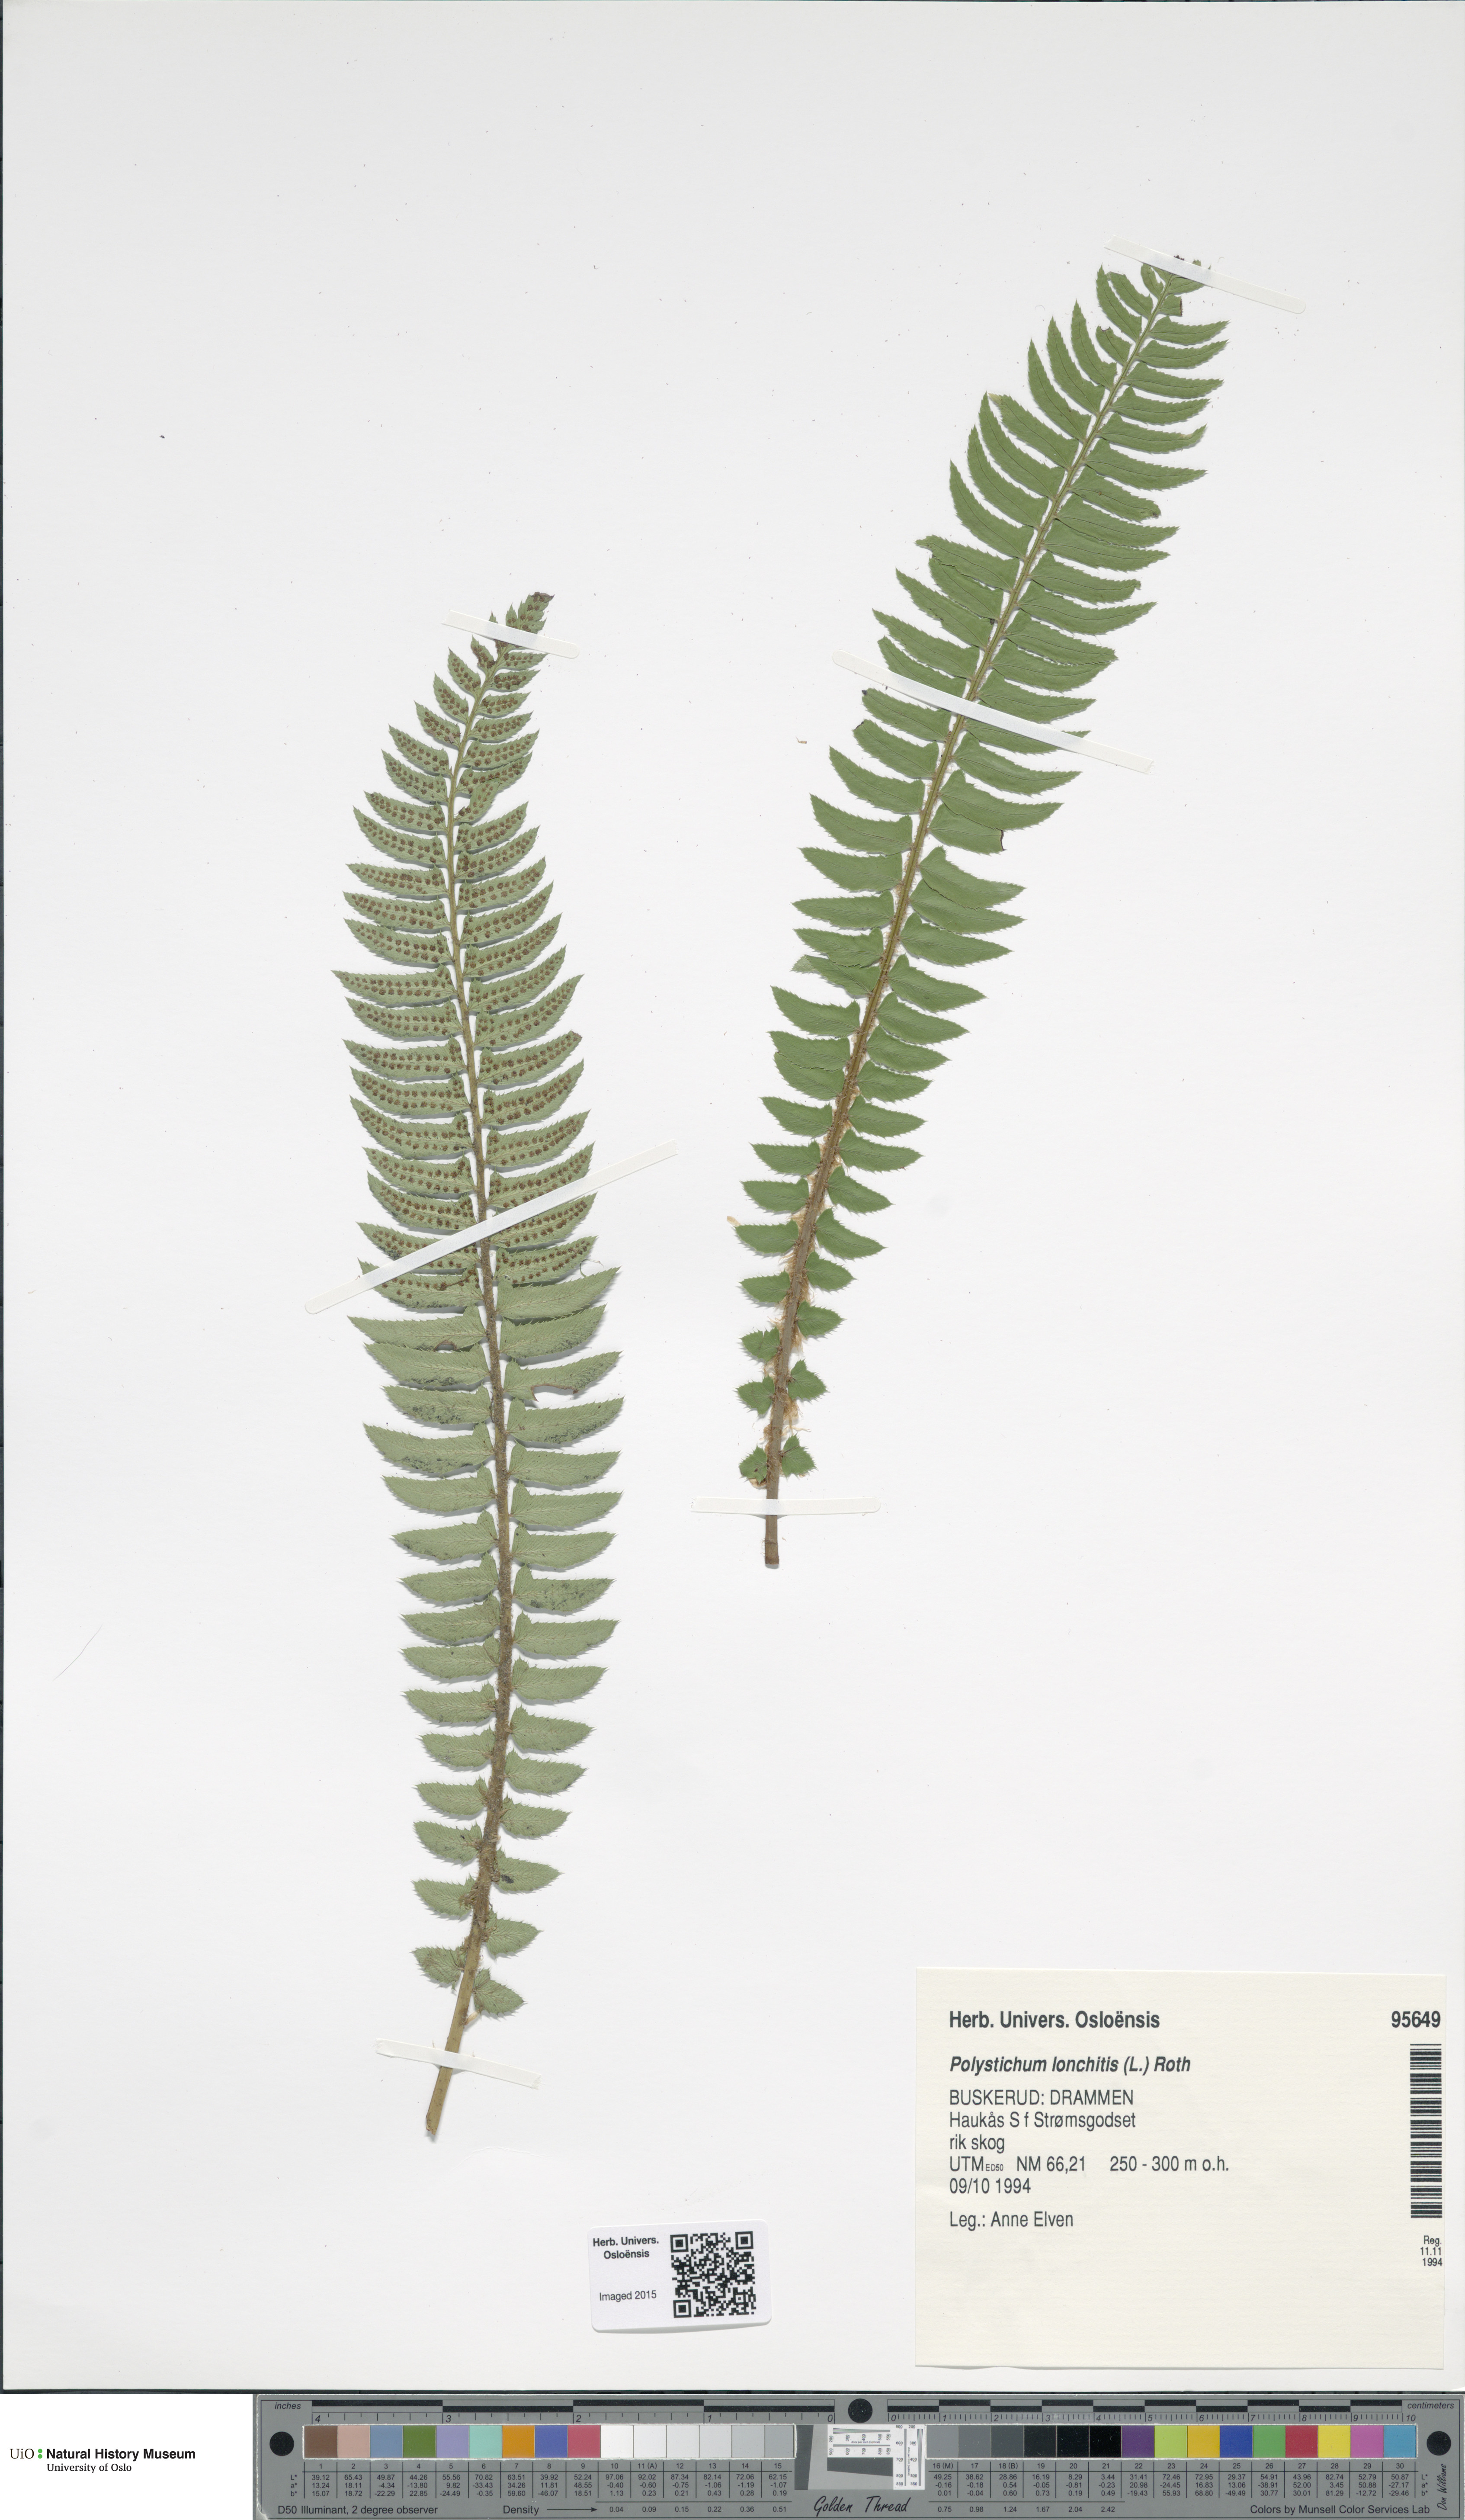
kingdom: Plantae
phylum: Tracheophyta
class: Polypodiopsida
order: Polypodiales
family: Dryopteridaceae
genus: Polystichum
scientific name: Polystichum lonchitis
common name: Holly fern
